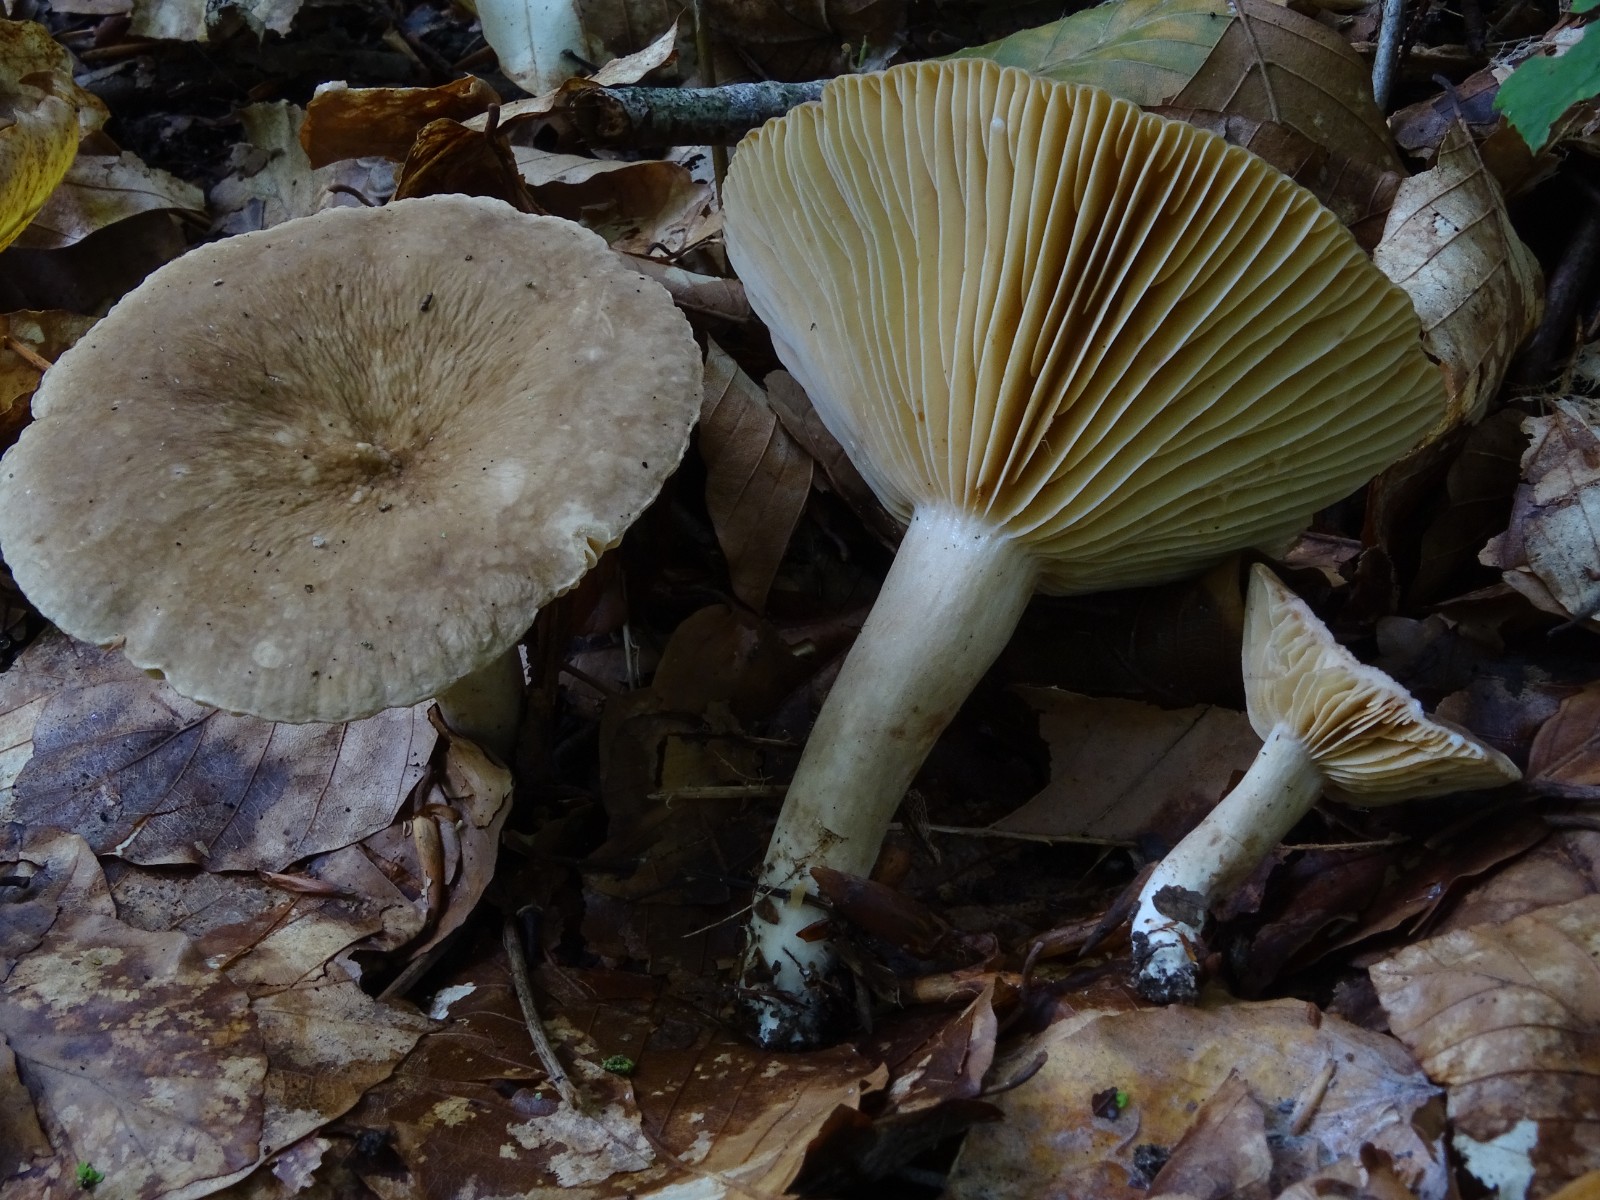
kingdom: Fungi
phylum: Basidiomycota
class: Agaricomycetes
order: Russulales
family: Russulaceae
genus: Lactarius
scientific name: Lactarius pterosporus
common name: vingesporet mælkehat
